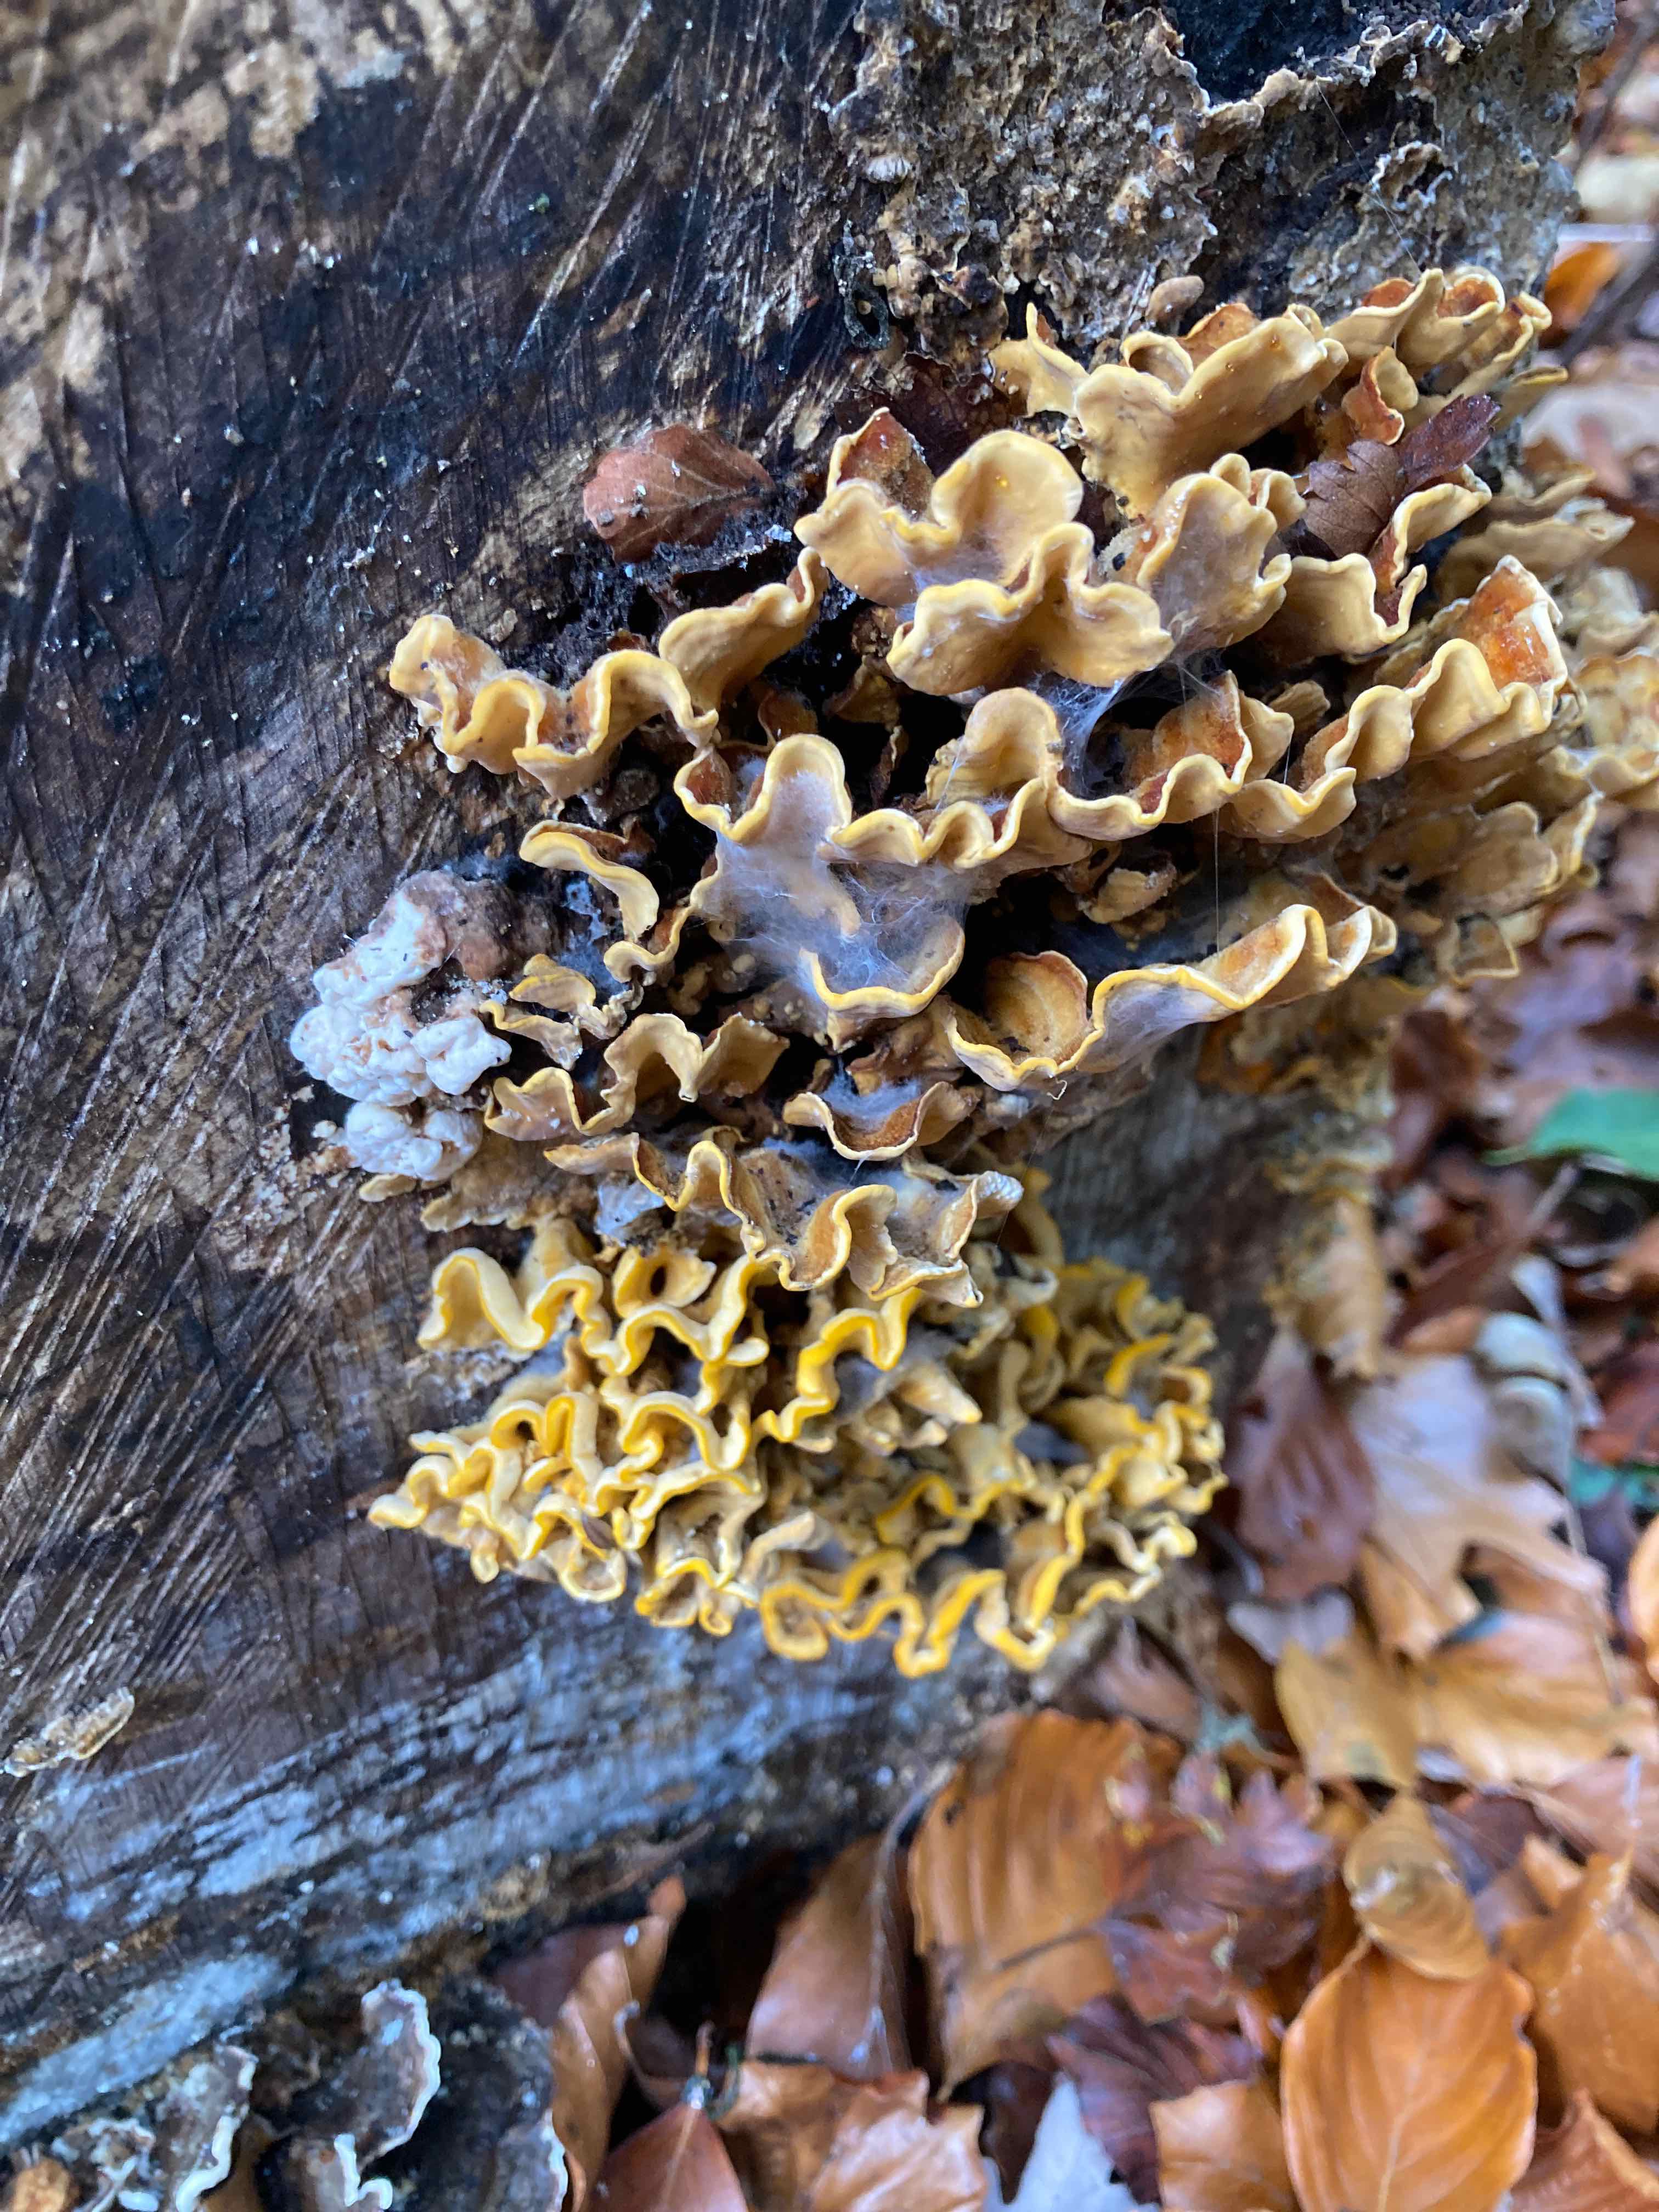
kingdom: Fungi
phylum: Basidiomycota
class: Agaricomycetes
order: Russulales
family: Stereaceae
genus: Stereum
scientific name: Stereum hirsutum
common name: håret lædersvamp
